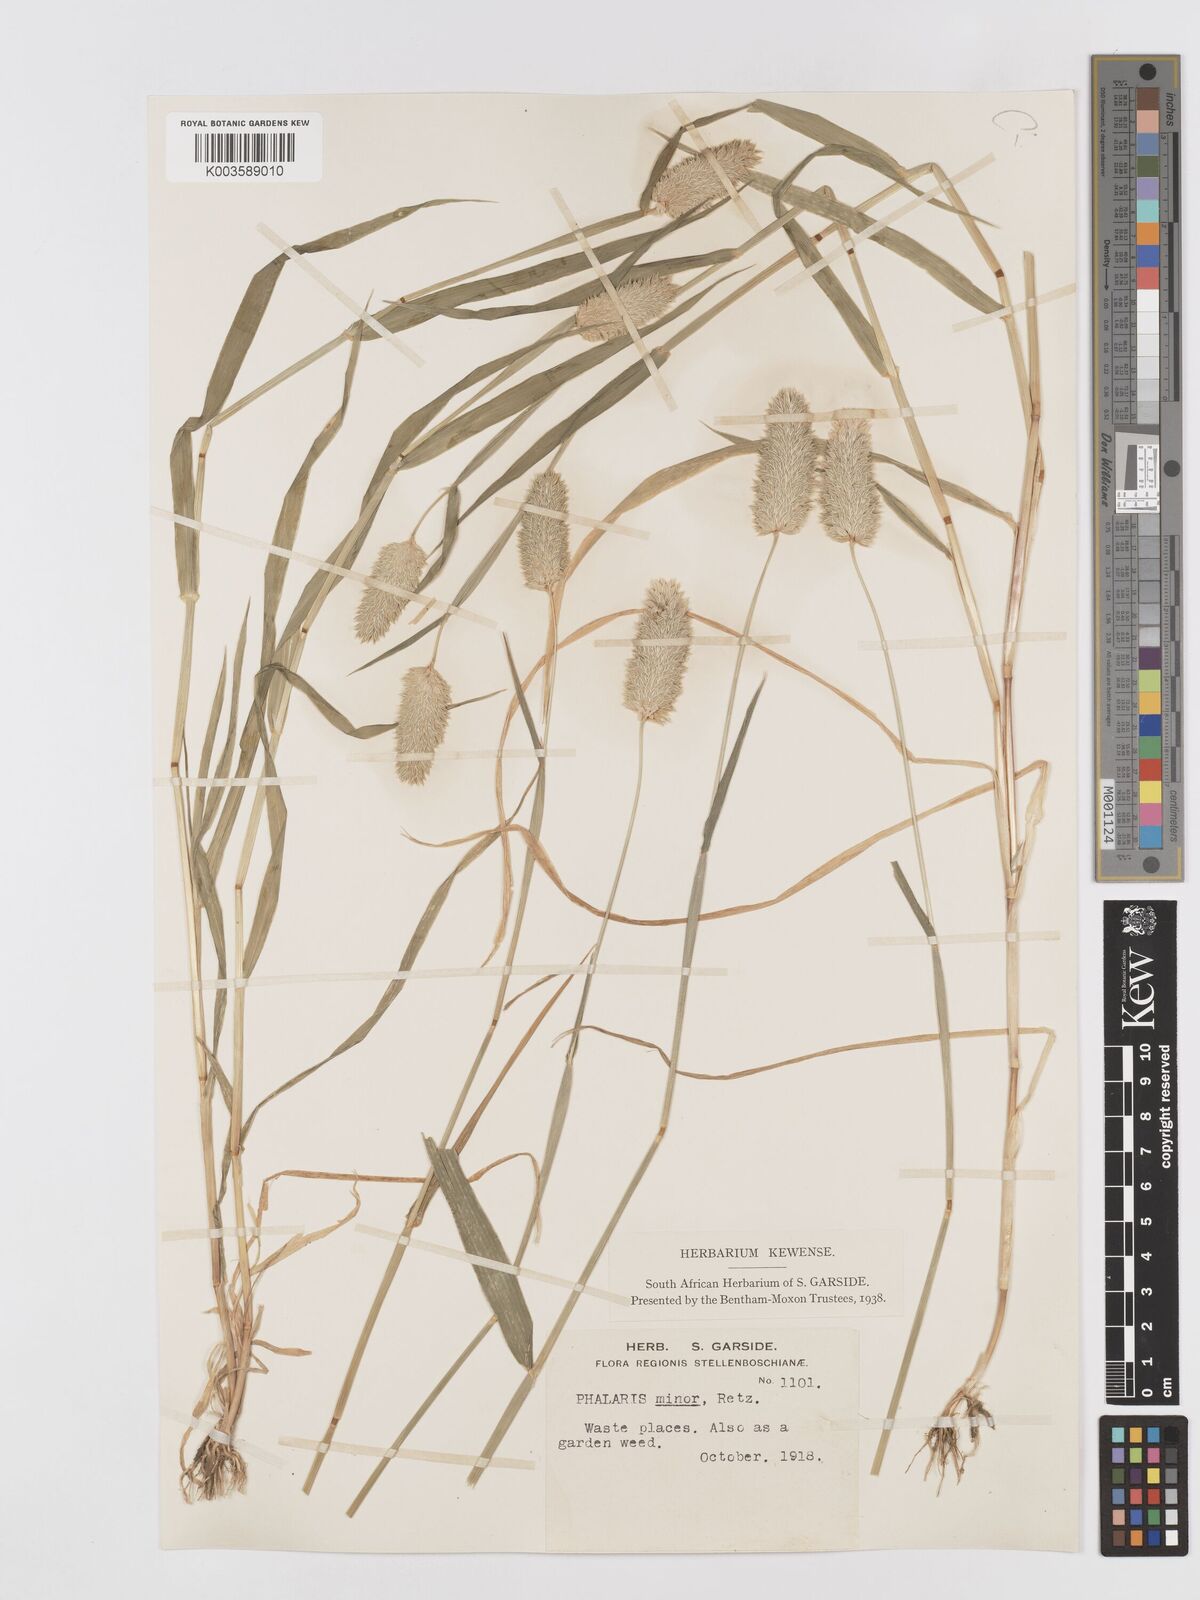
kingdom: Plantae
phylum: Tracheophyta
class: Liliopsida
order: Poales
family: Poaceae
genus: Phalaris
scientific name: Phalaris minor
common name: Littleseed canarygrass
